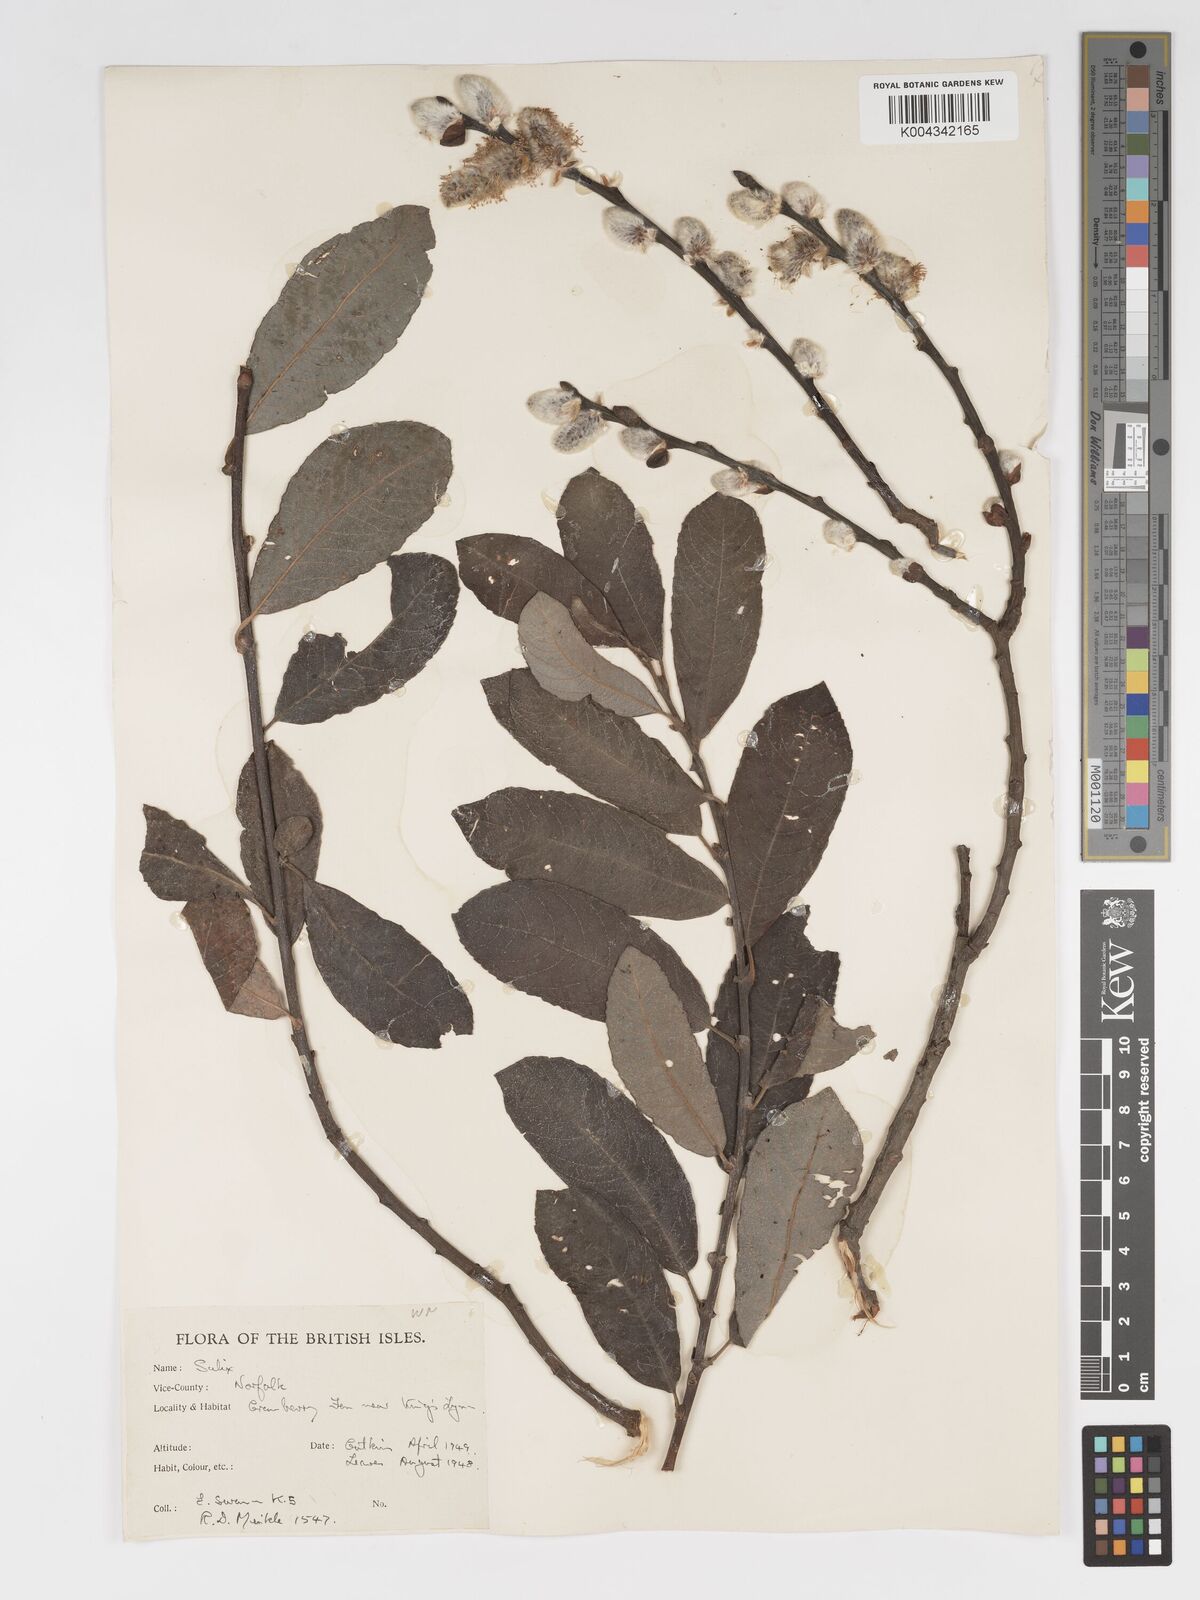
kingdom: Plantae
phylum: Tracheophyta
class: Magnoliopsida
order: Malpighiales
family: Salicaceae
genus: Salix
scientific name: Salix
